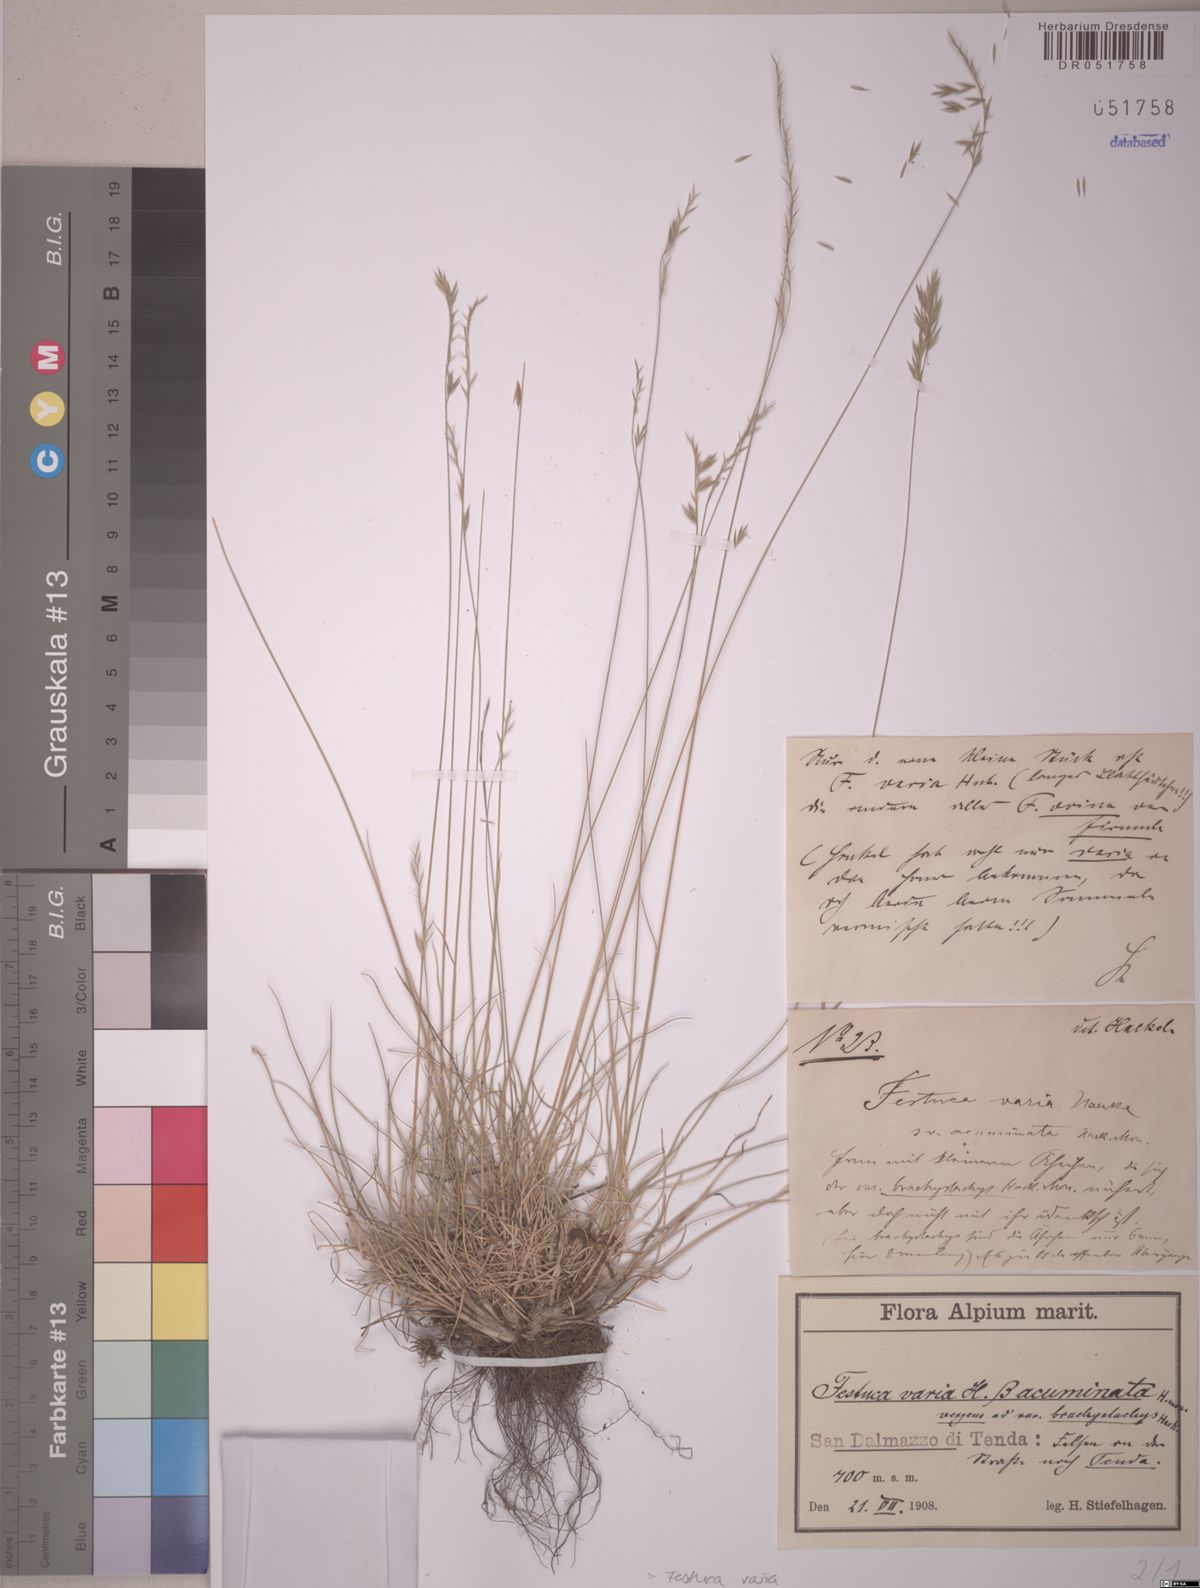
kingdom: Plantae
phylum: Tracheophyta
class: Liliopsida
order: Poales
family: Poaceae
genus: Festuca
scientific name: Festuca varia
